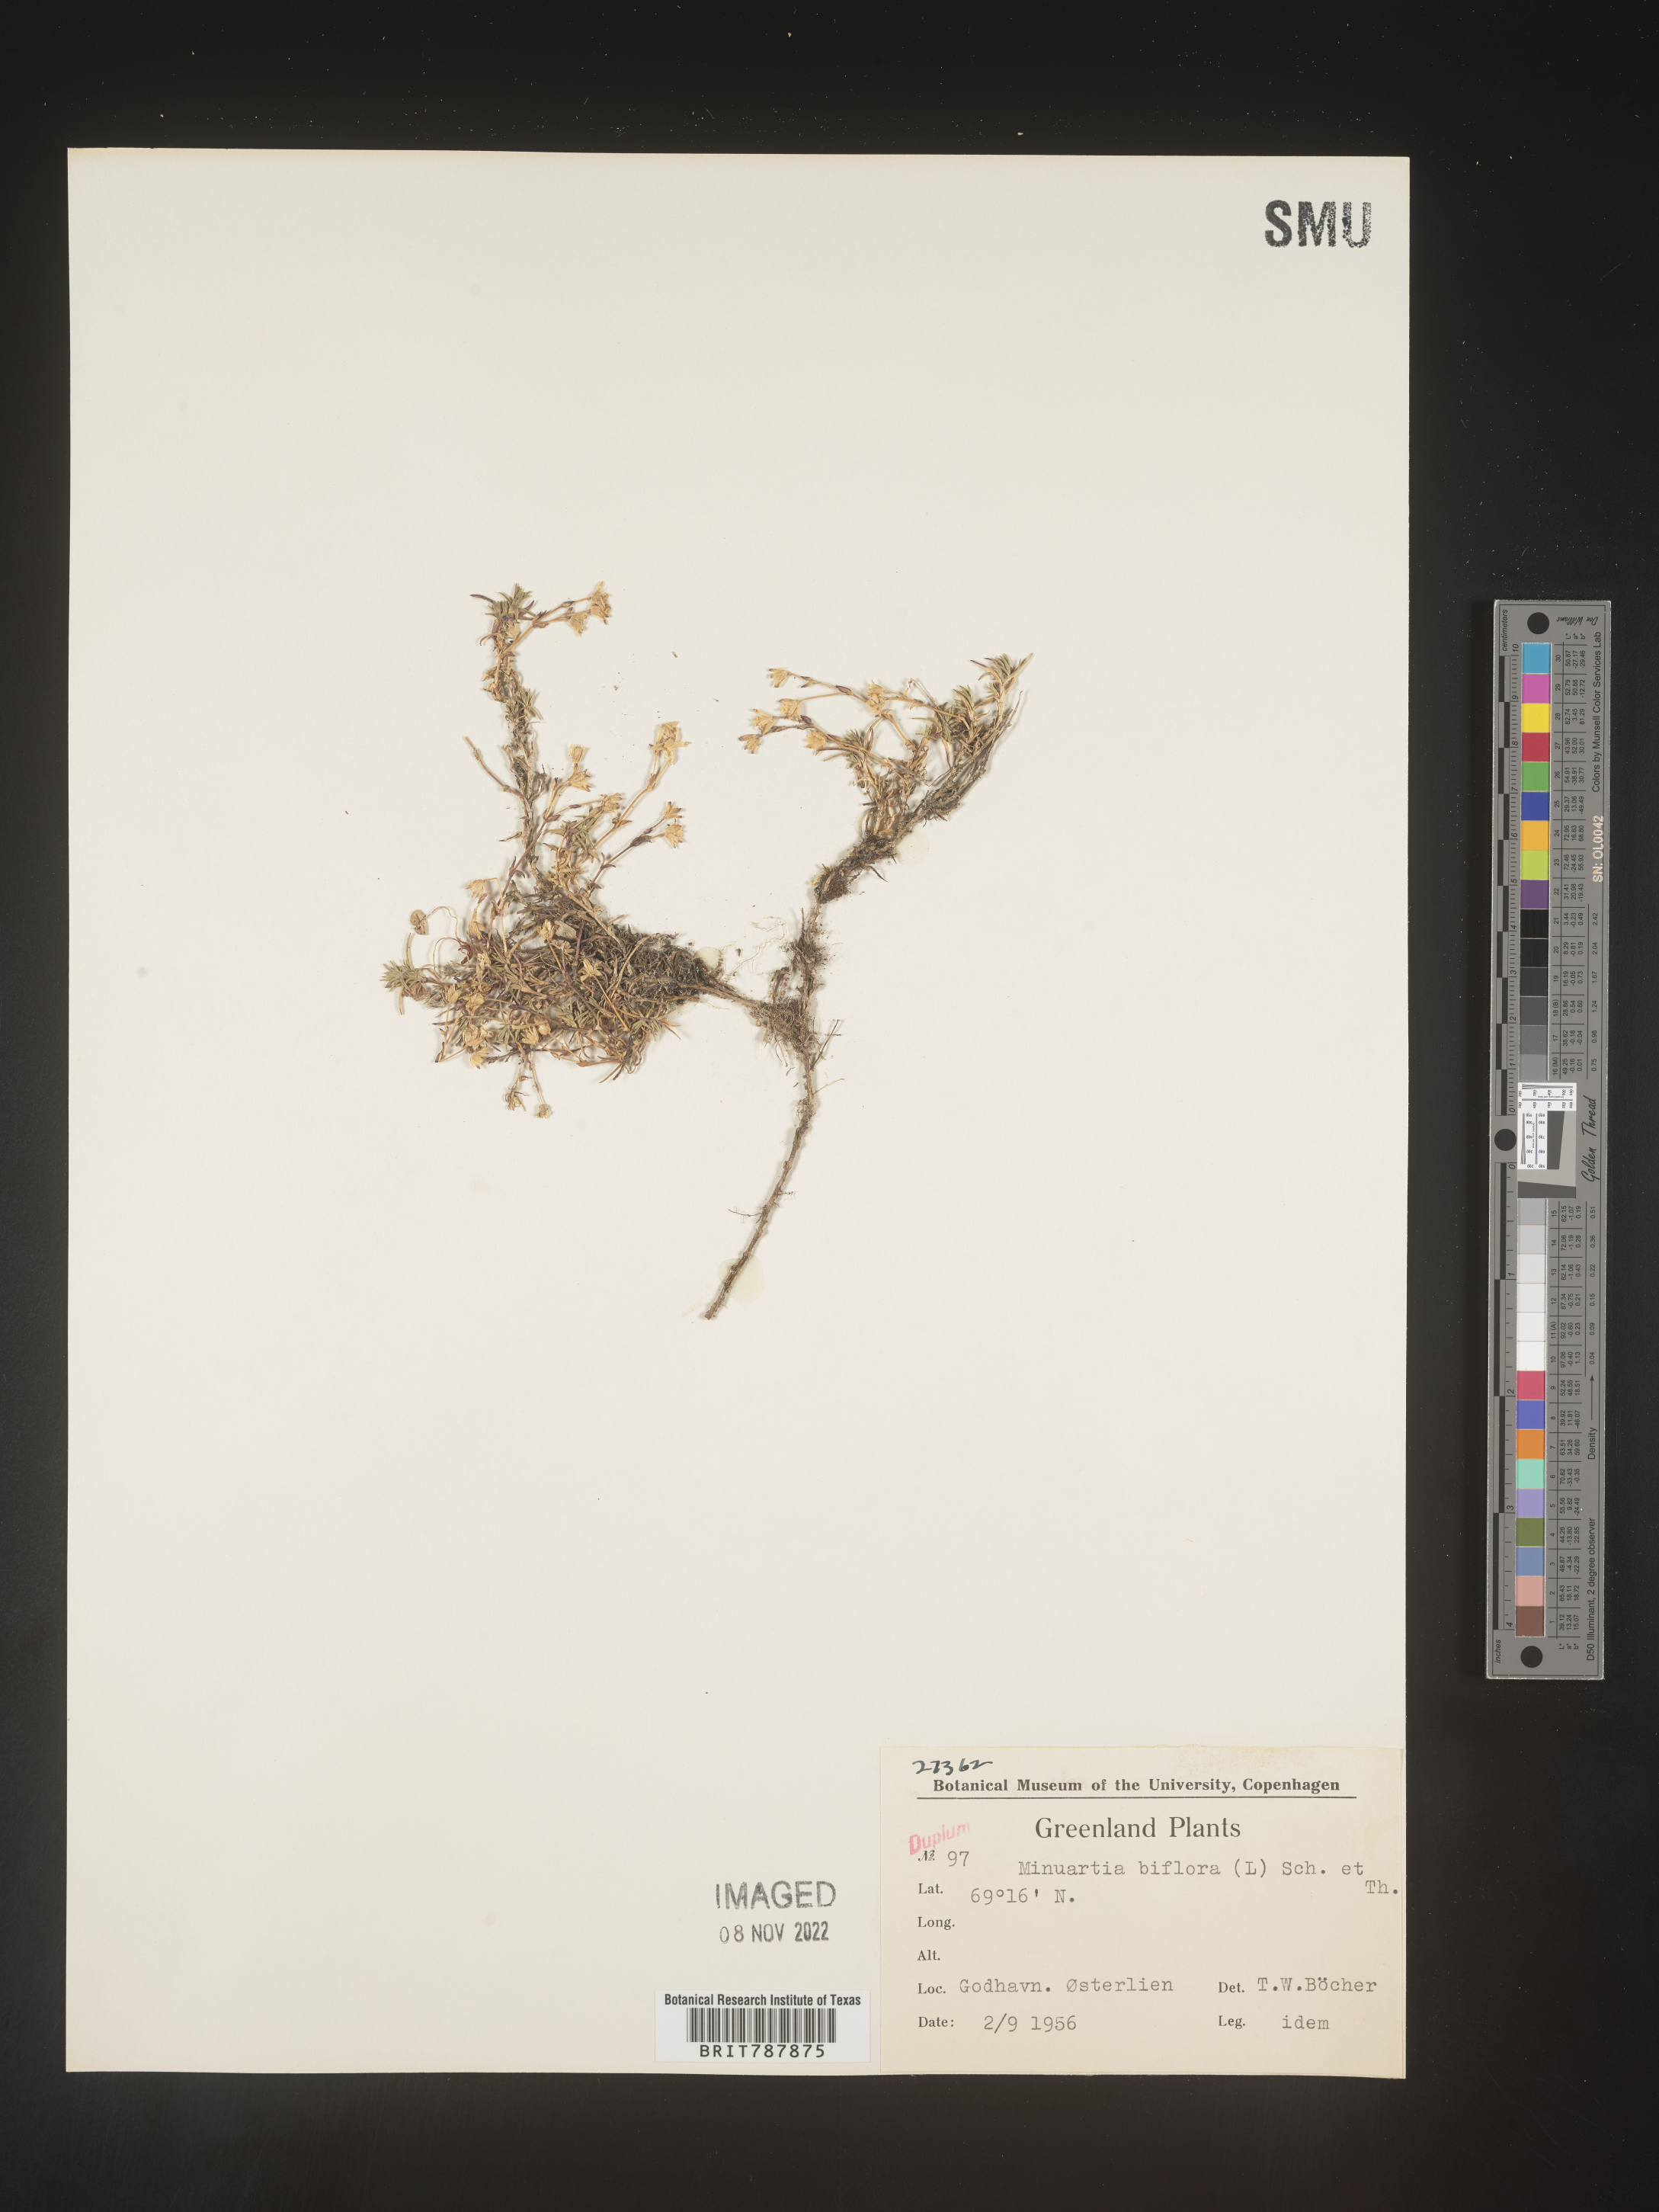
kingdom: Plantae
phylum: Tracheophyta
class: Magnoliopsida
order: Caryophyllales
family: Caryophyllaceae
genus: Arenaria
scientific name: Arenaria
